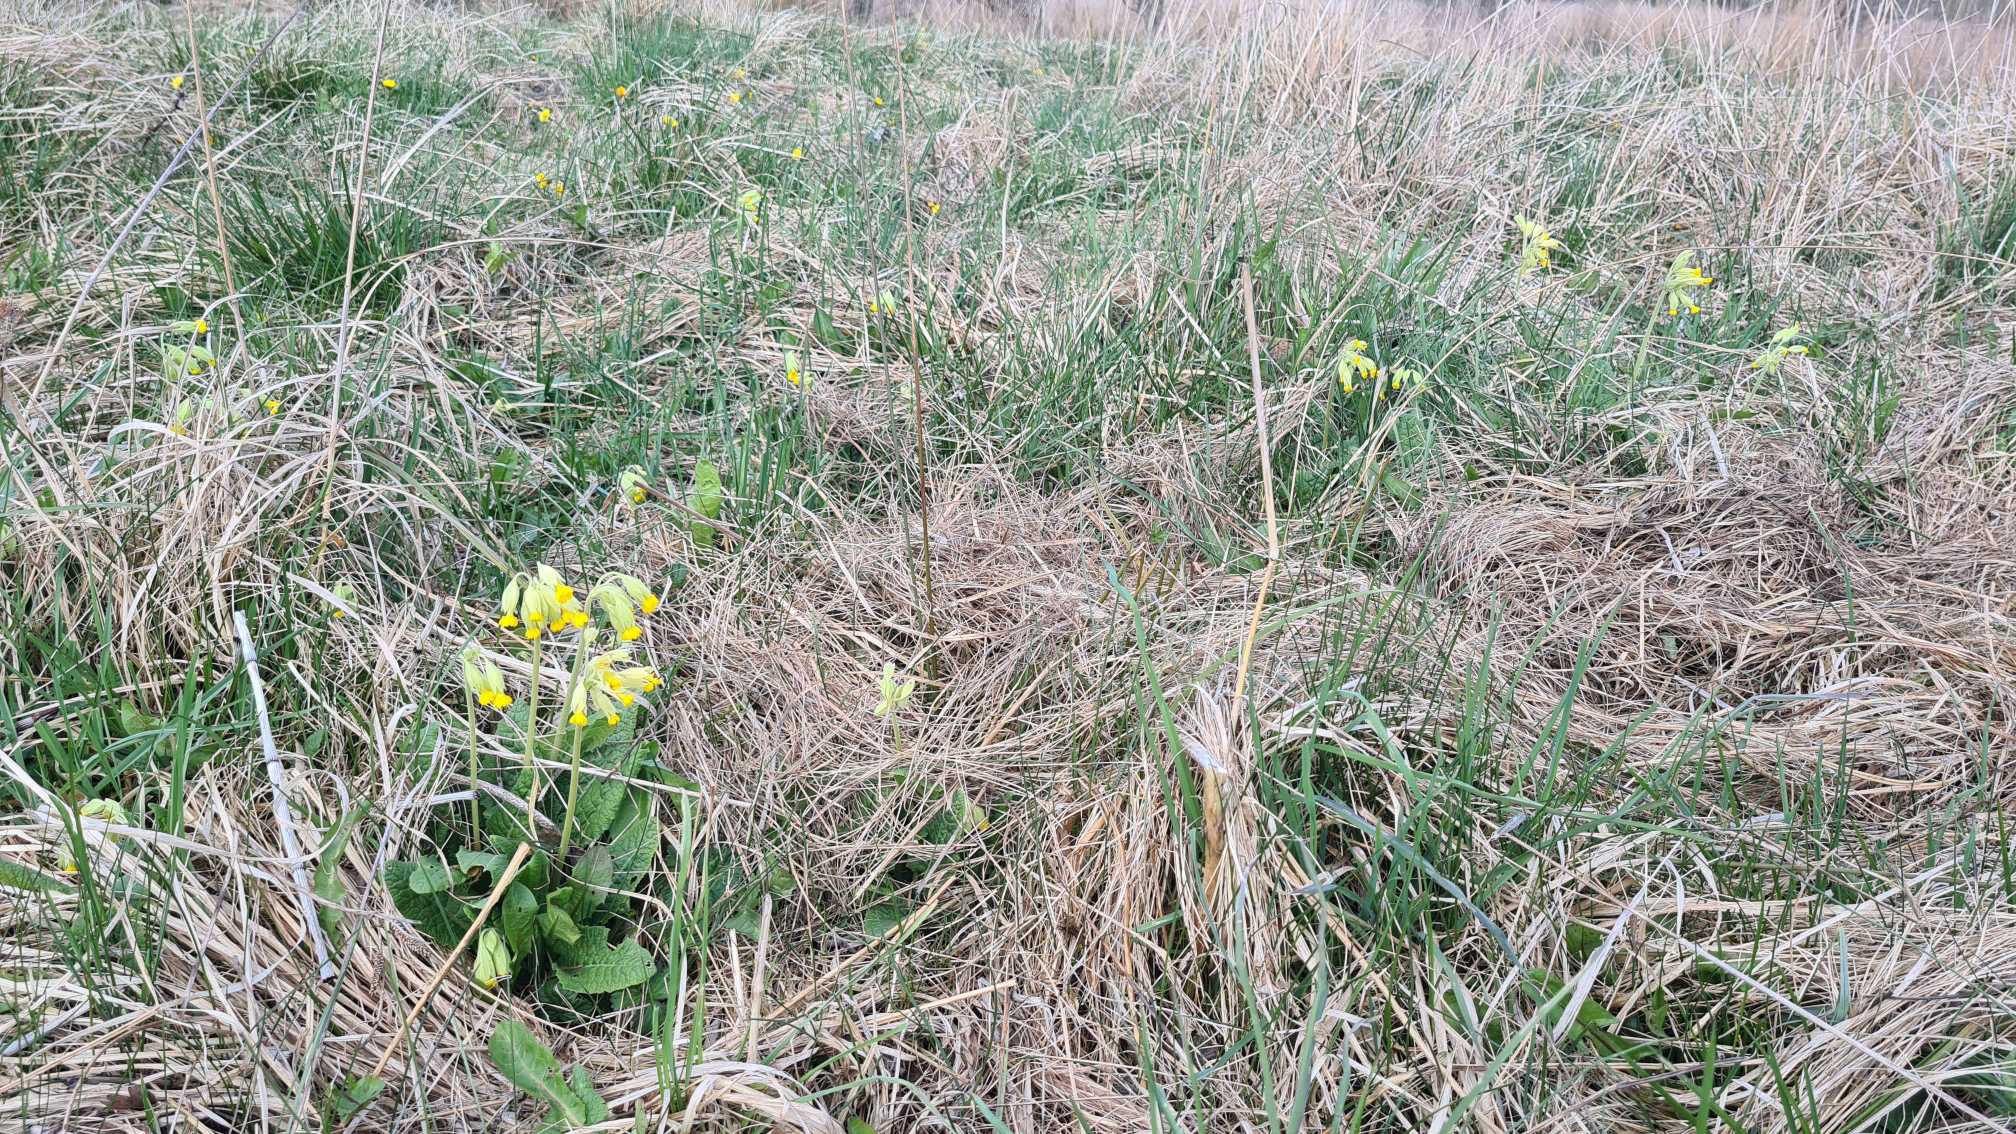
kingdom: Plantae
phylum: Tracheophyta
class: Magnoliopsida
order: Ericales
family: Primulaceae
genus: Primula
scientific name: Primula veris
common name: Hulkravet kodriver
